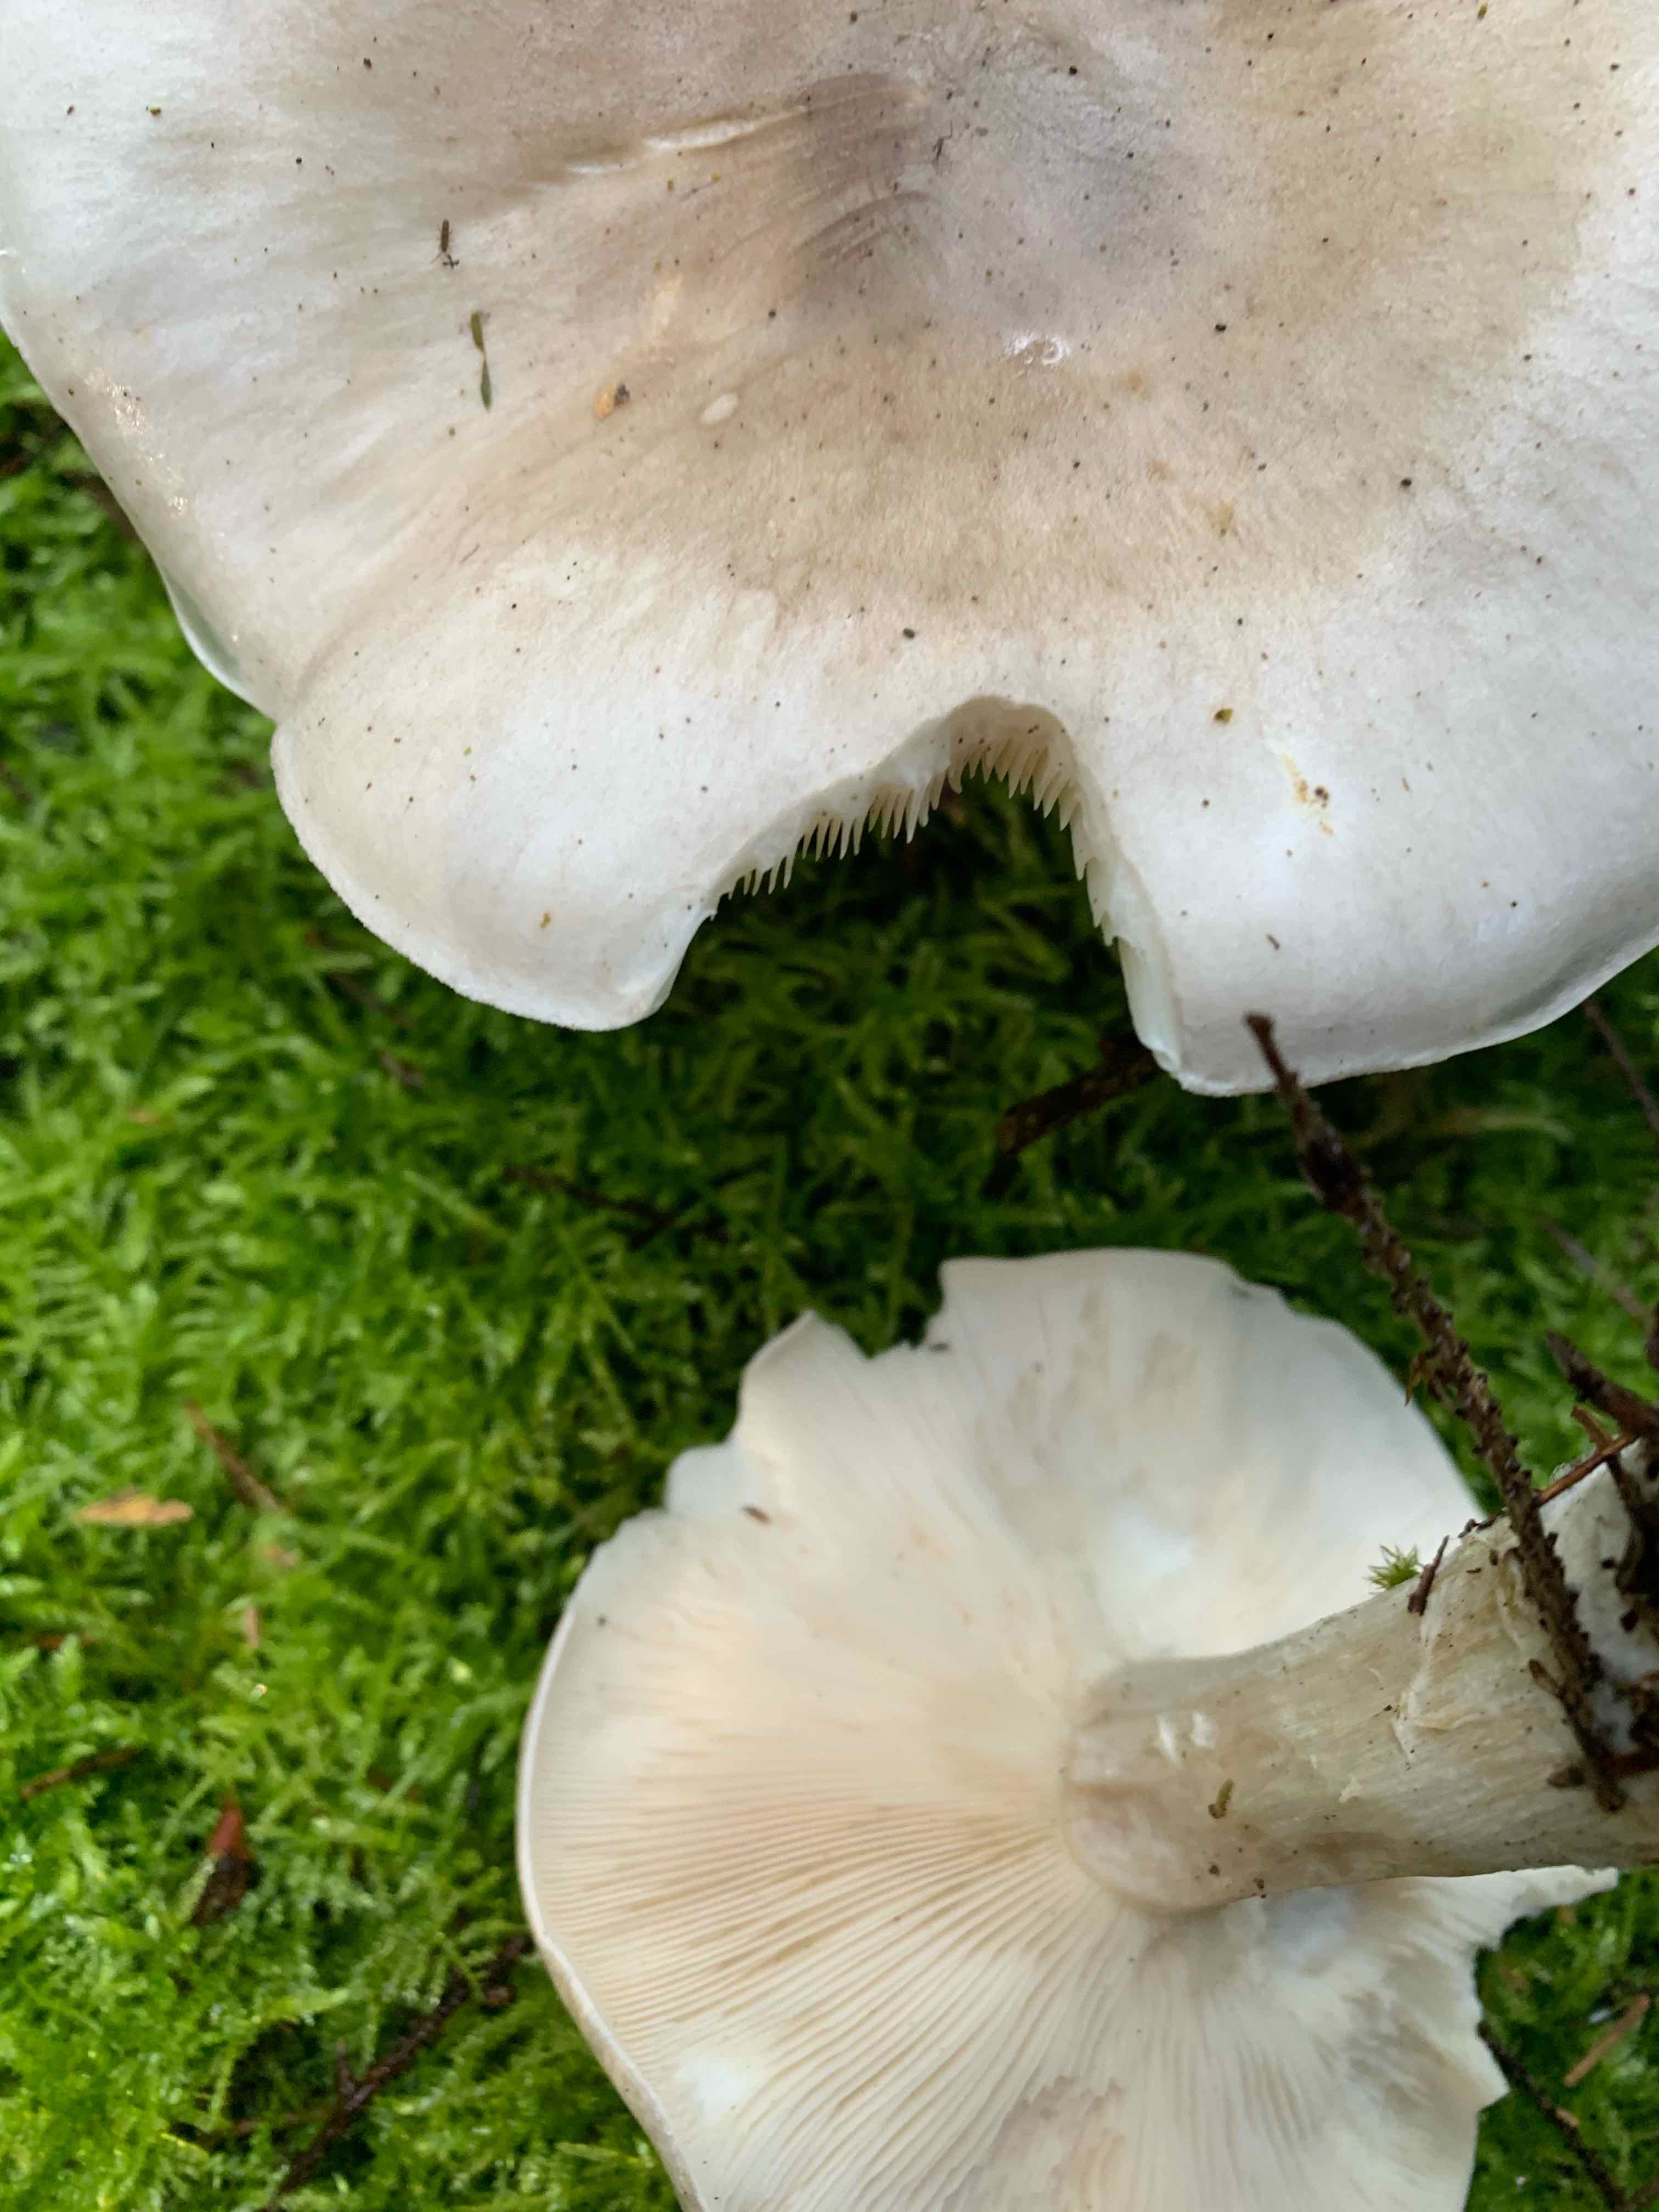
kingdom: Fungi
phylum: Basidiomycota
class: Agaricomycetes
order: Agaricales
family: Tricholomataceae
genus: Clitocybe
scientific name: Clitocybe nebularis
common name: tåge-tragthat
